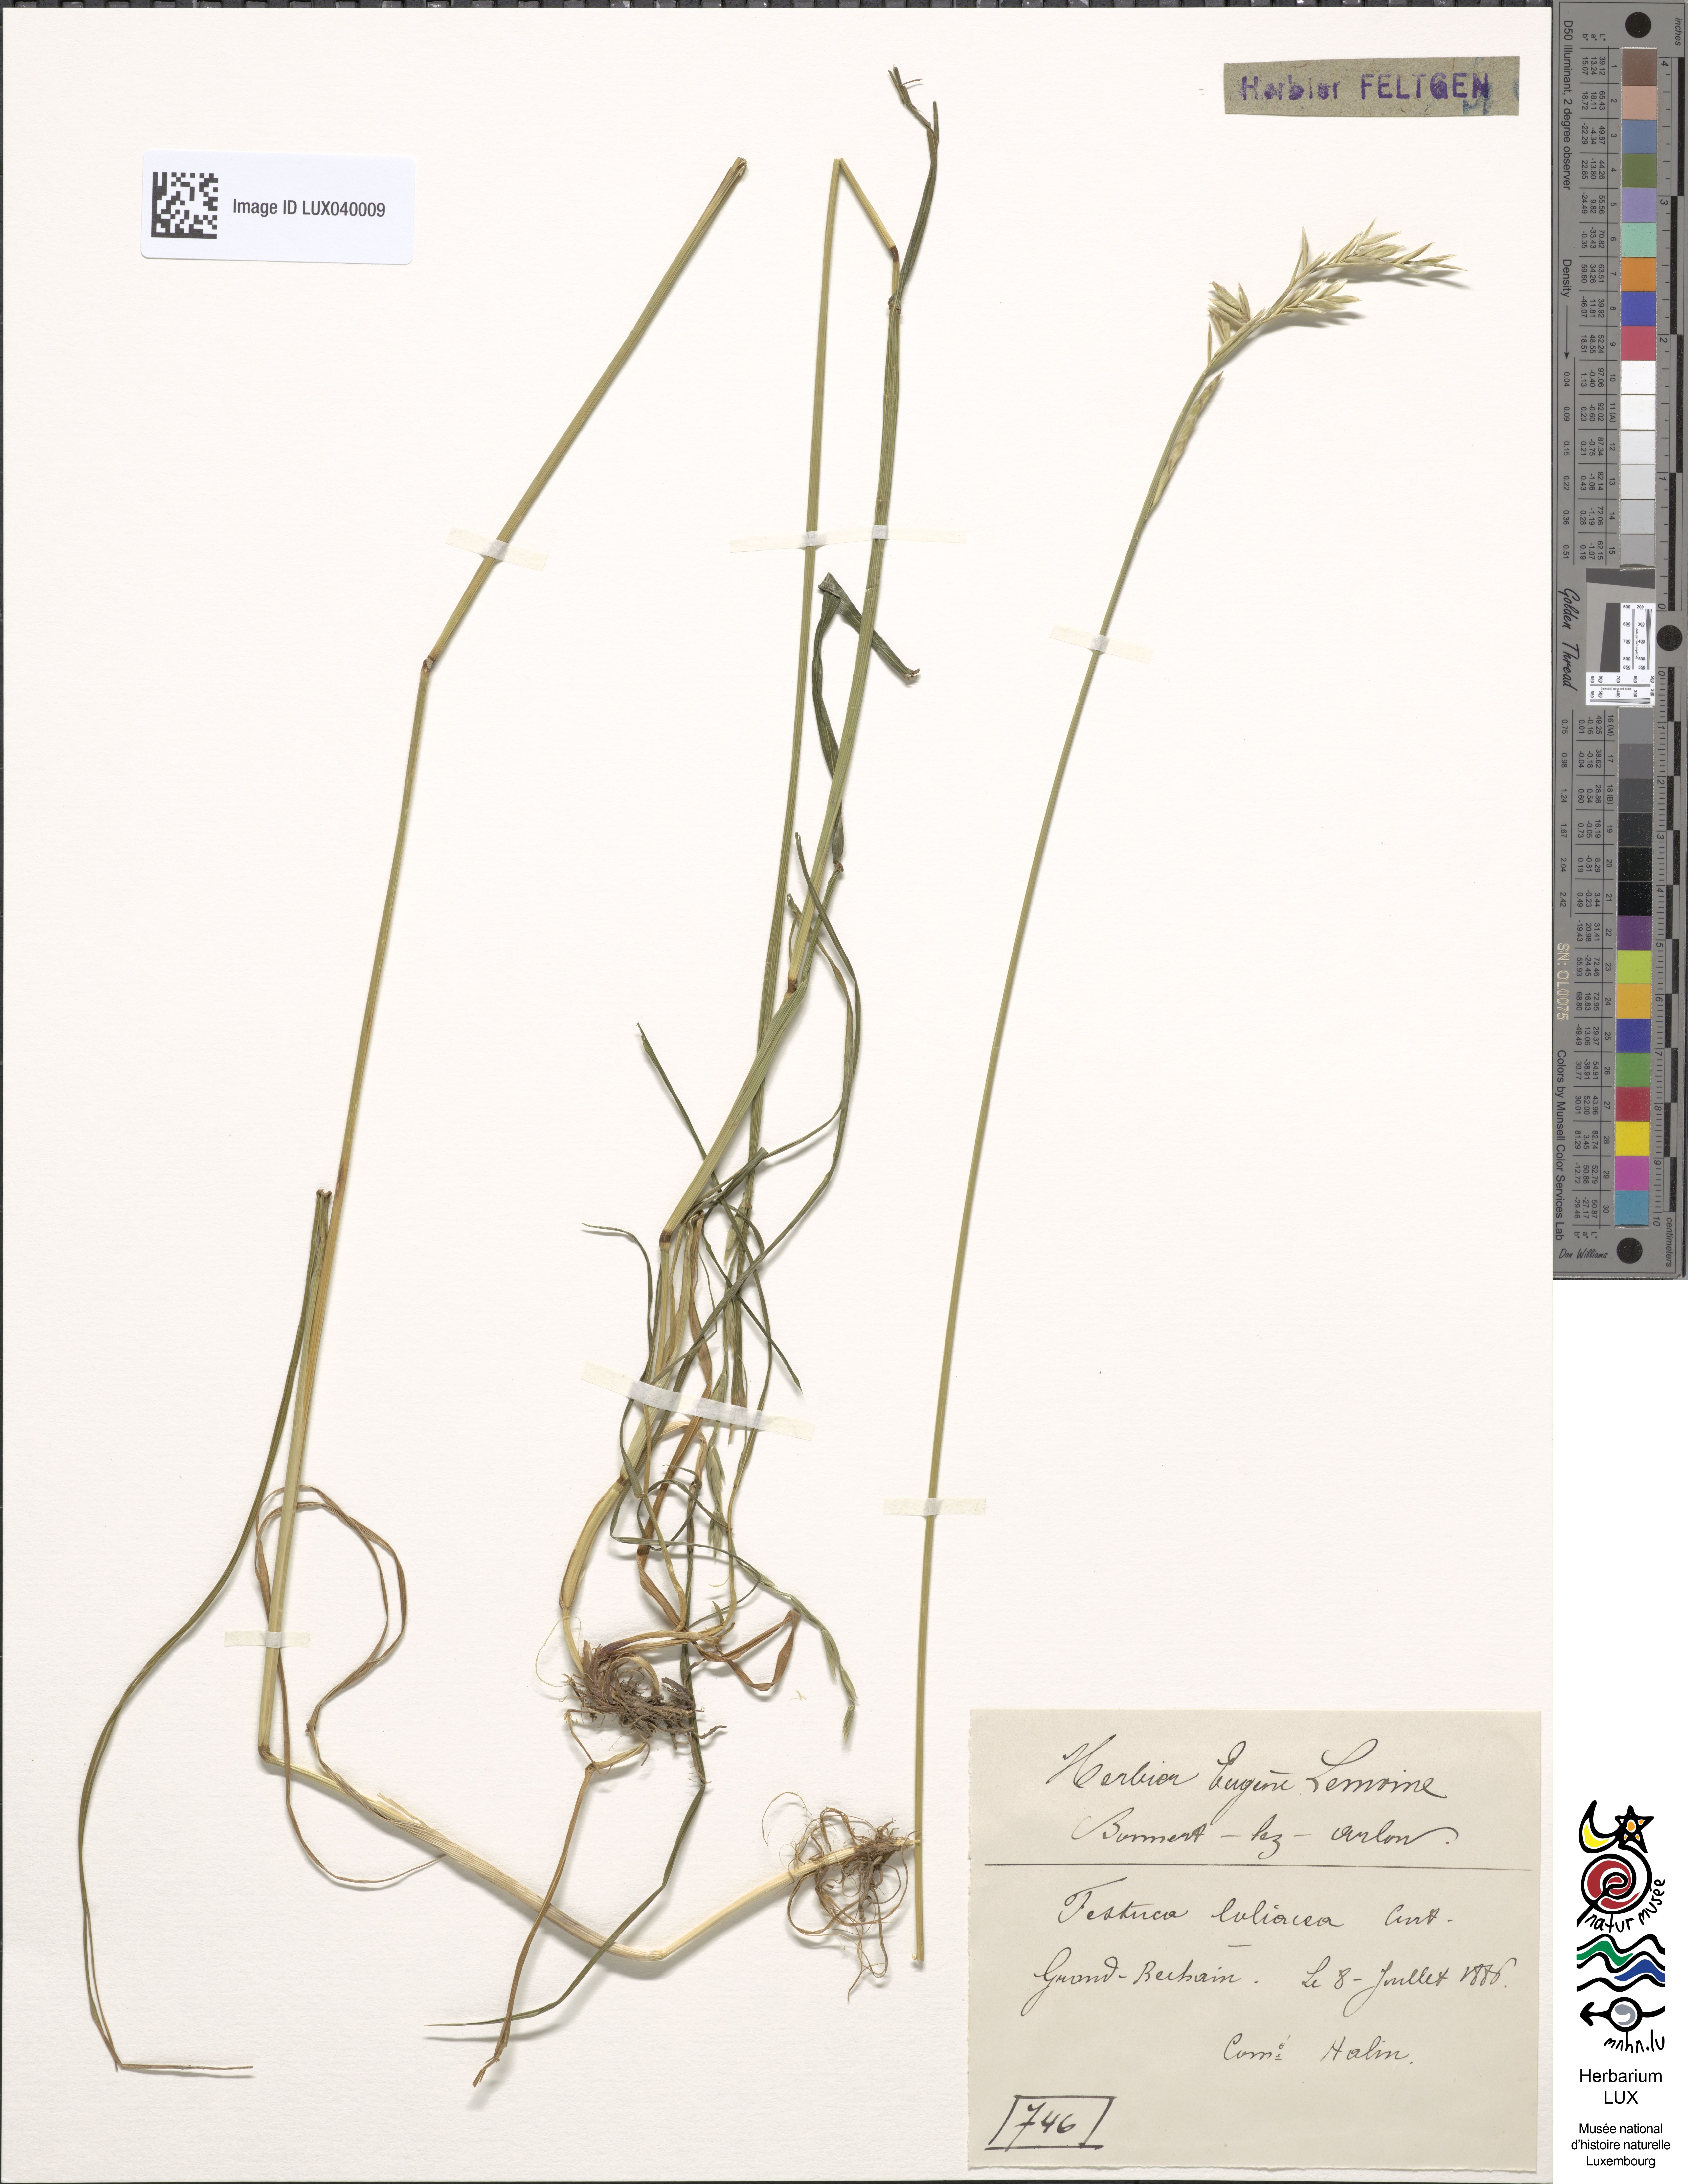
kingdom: Plantae
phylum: Tracheophyta
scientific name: Tracheophyta
